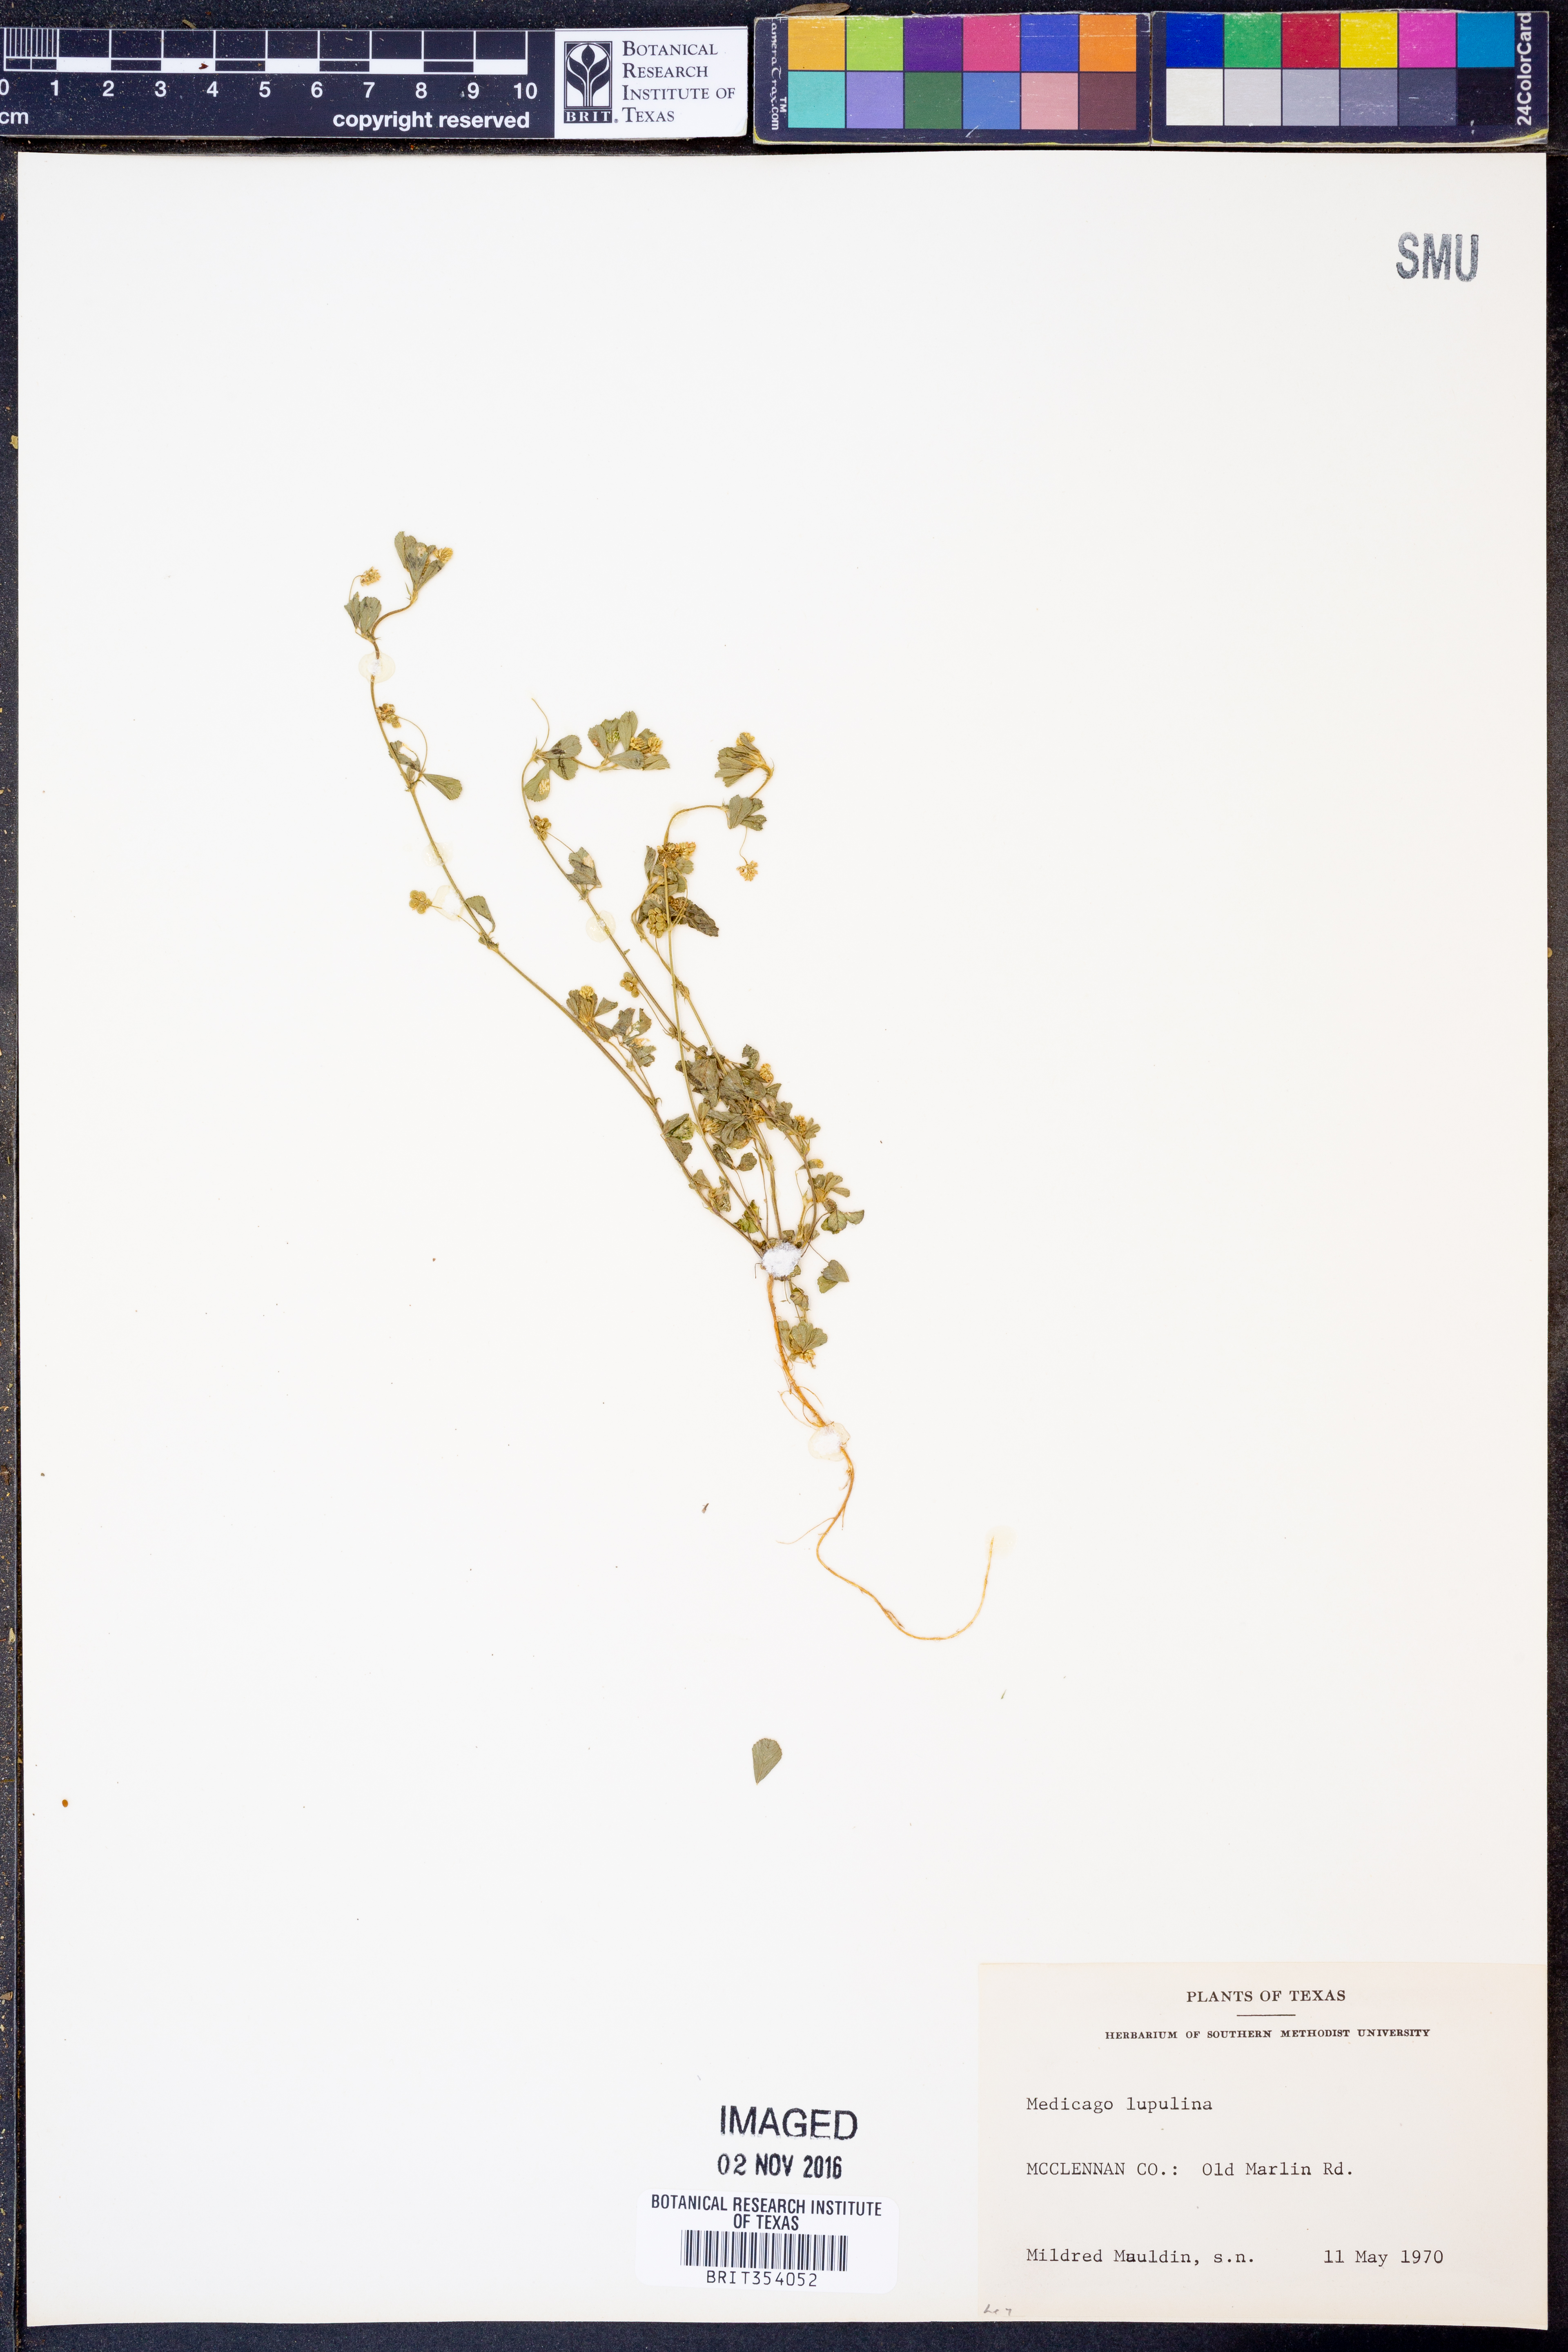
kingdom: Plantae
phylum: Tracheophyta
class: Magnoliopsida
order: Fabales
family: Fabaceae
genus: Medicago
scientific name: Medicago lupulina
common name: Black medick
